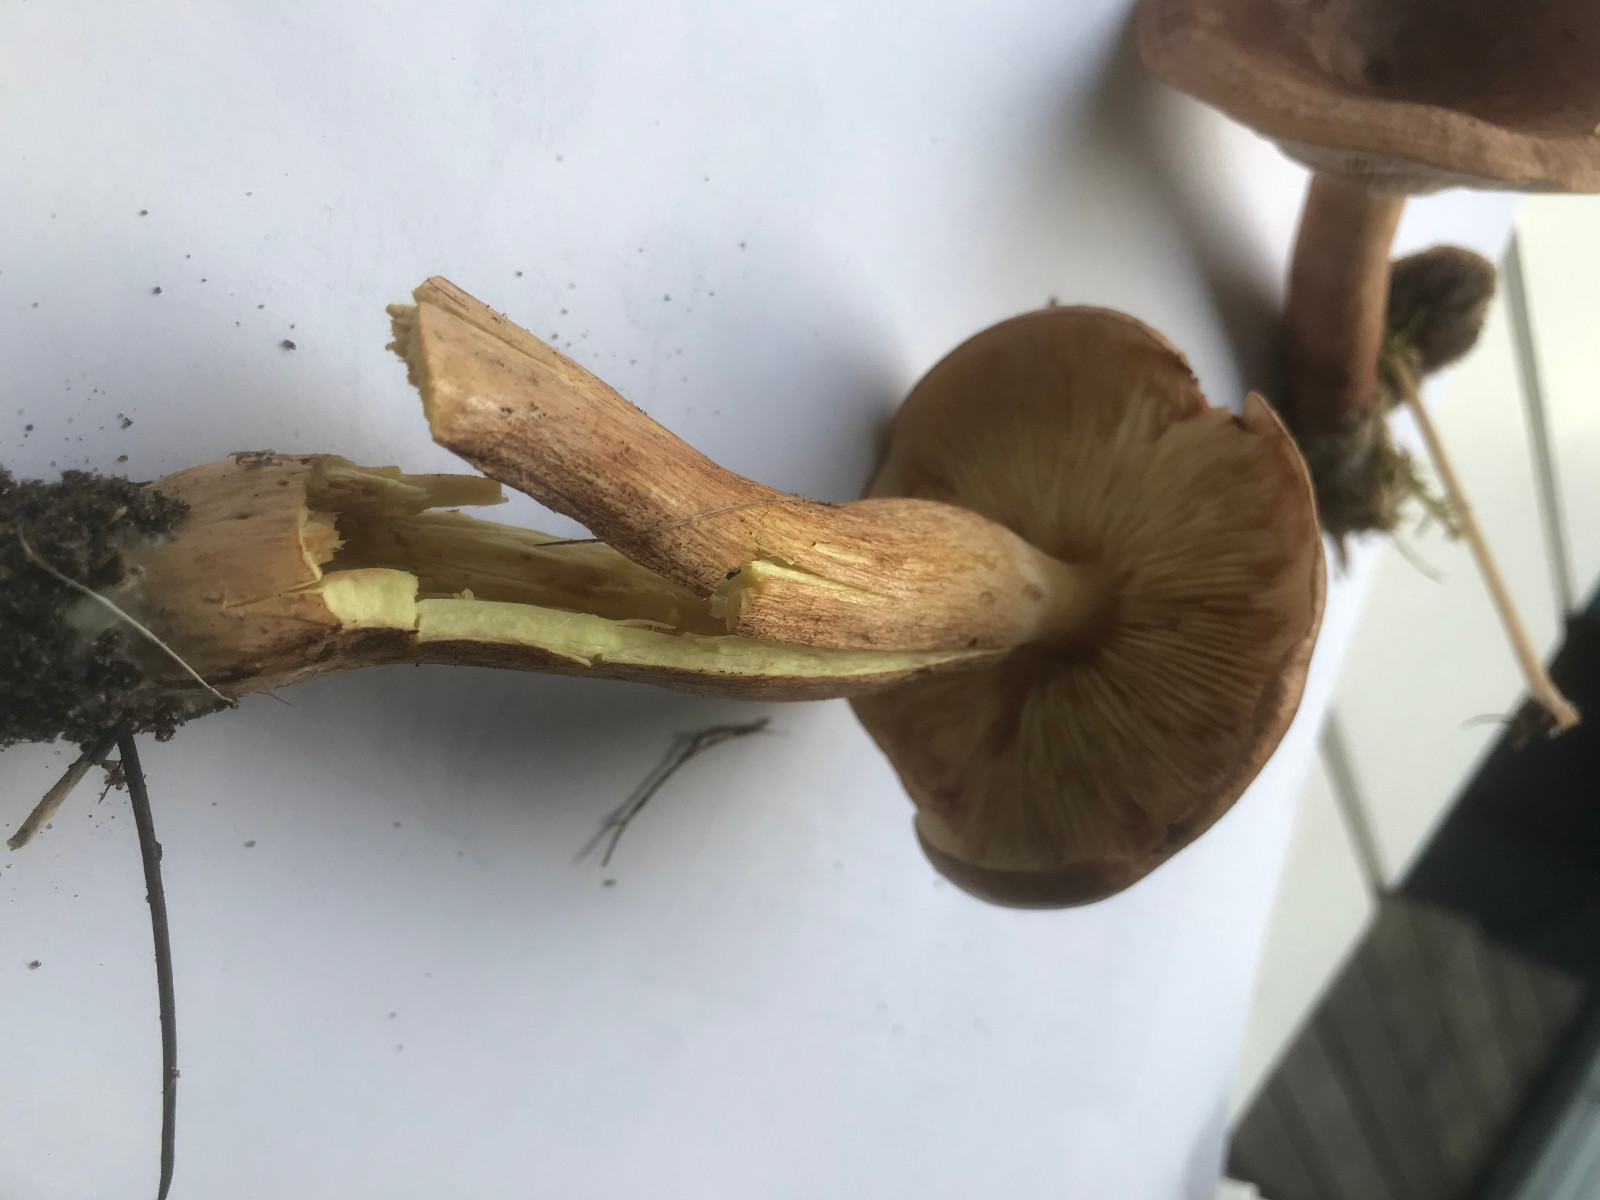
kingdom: Fungi
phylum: Basidiomycota
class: Agaricomycetes
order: Agaricales
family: Tricholomataceae
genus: Tricholoma
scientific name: Tricholoma fulvum
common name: birke-ridderhat
